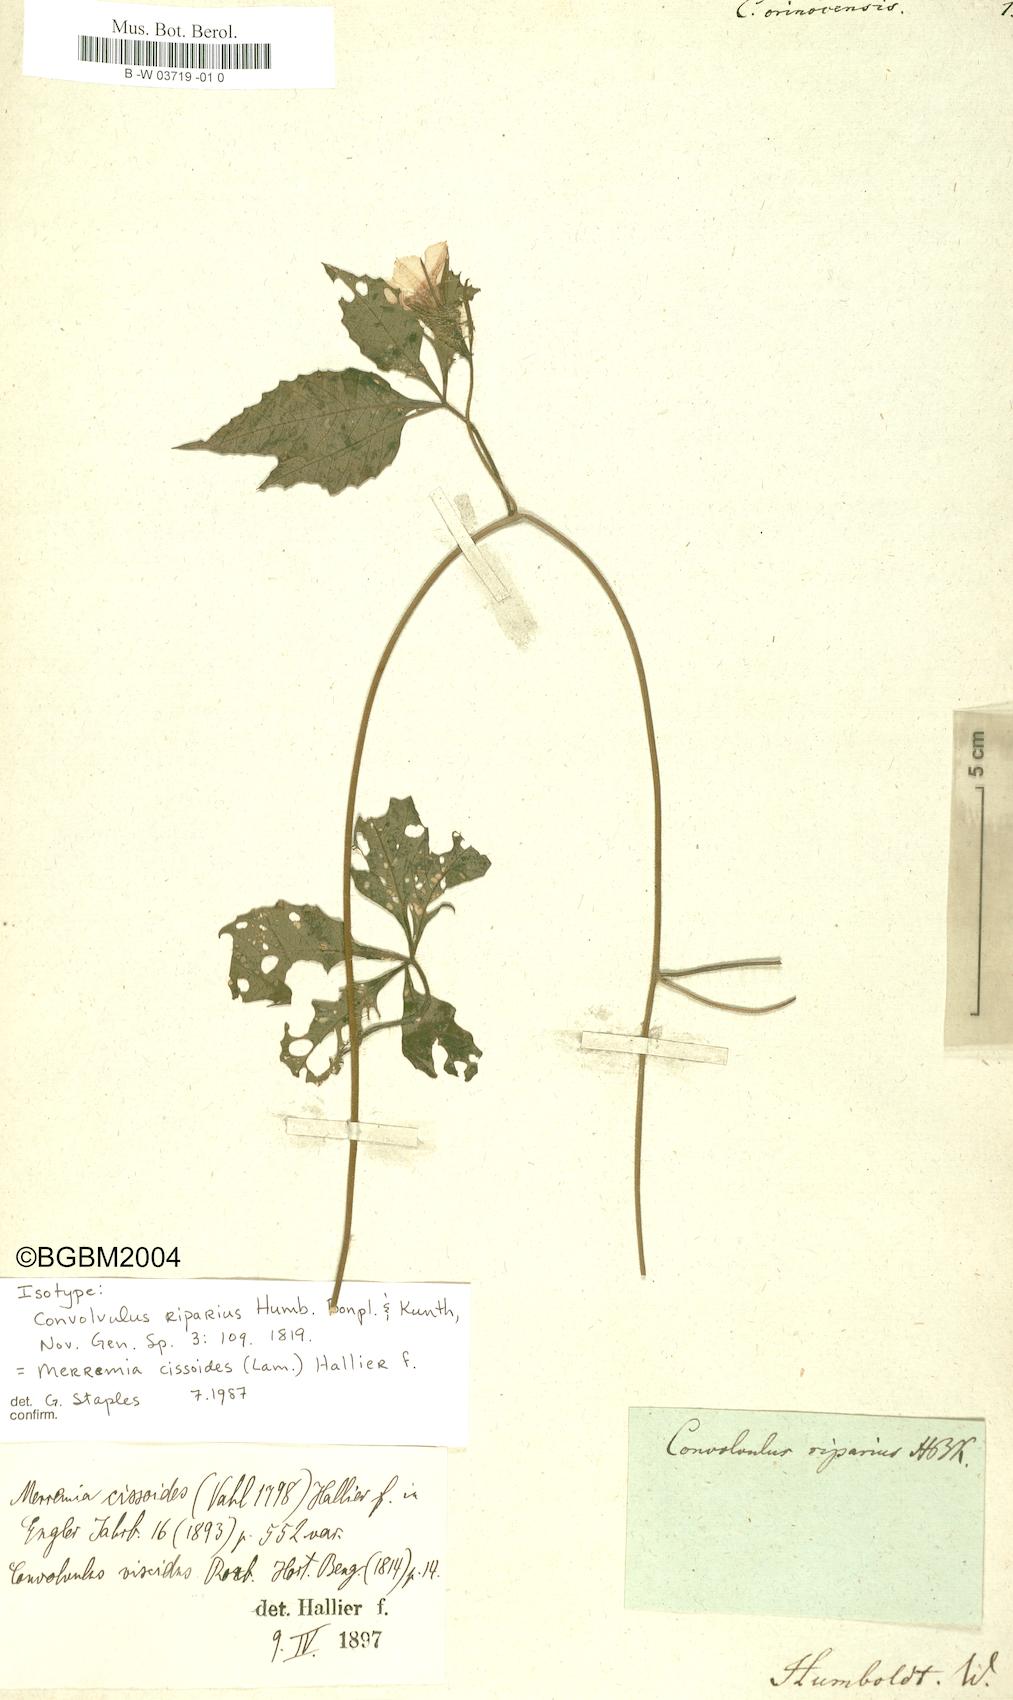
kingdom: Plantae
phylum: Tracheophyta
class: Magnoliopsida
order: Solanales
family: Convolvulaceae
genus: Distimake
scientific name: Distimake cissoides
